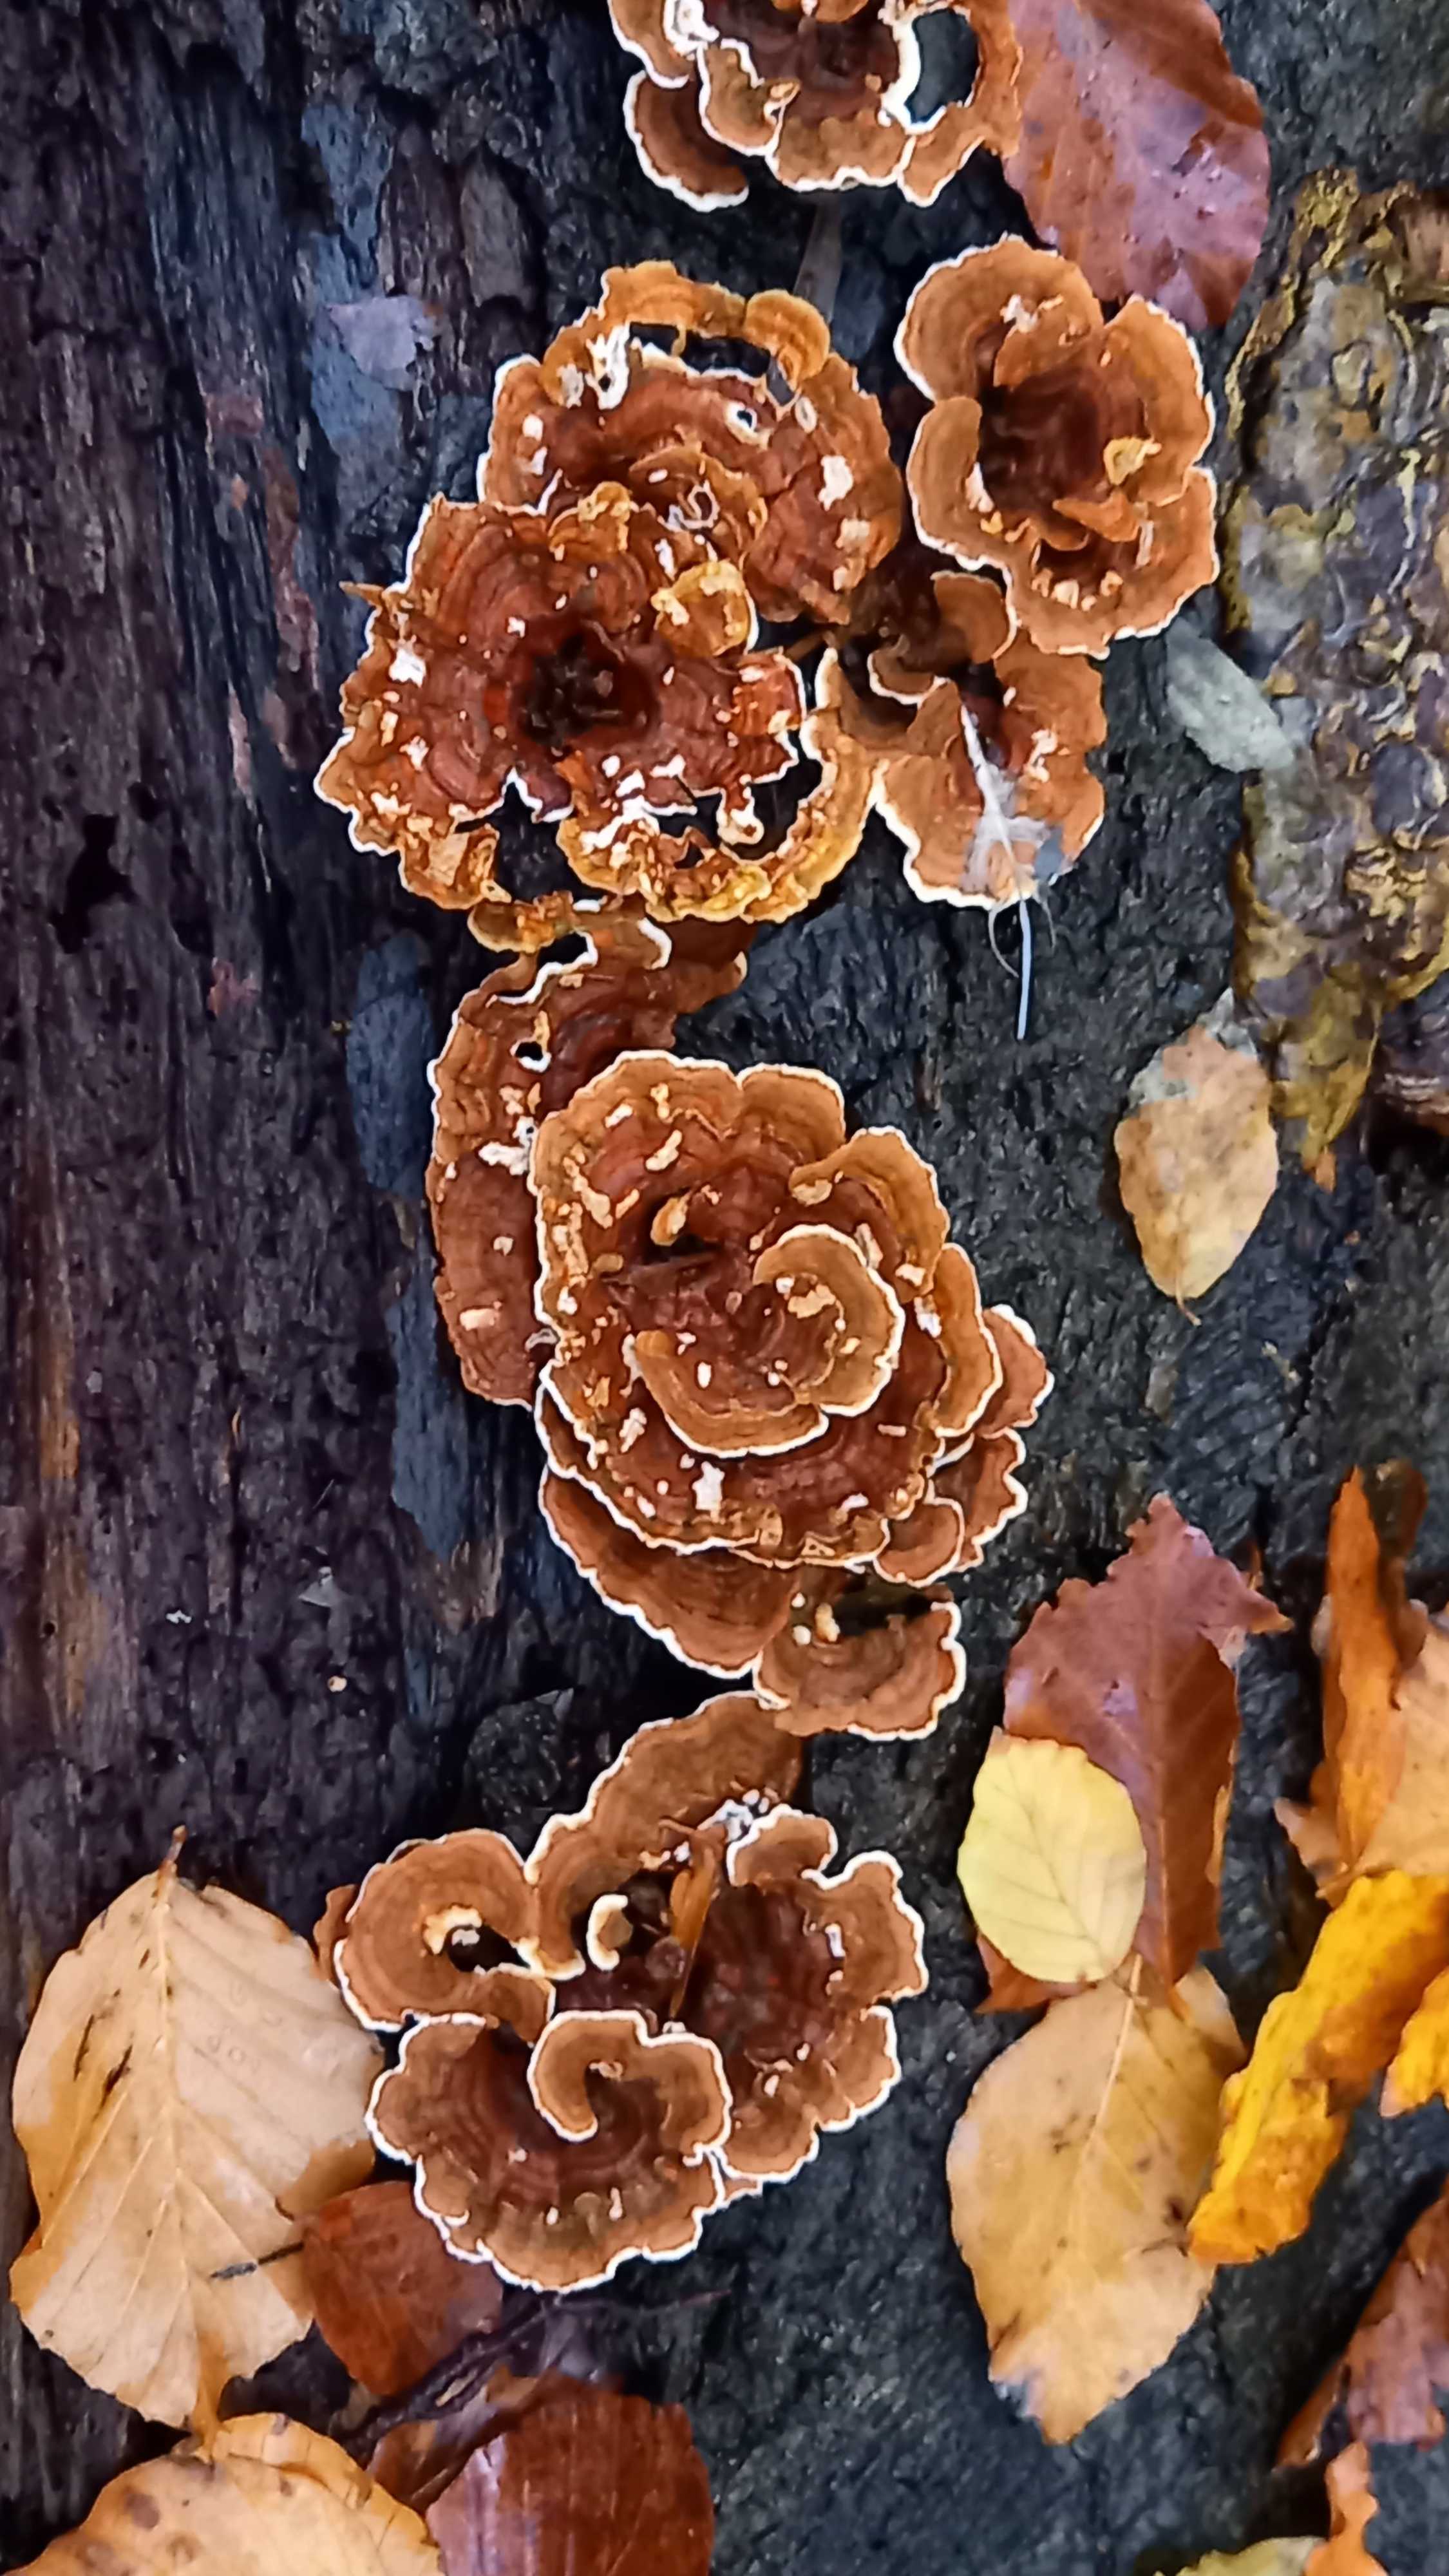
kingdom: Fungi
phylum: Basidiomycota
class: Agaricomycetes
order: Russulales
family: Stereaceae
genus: Stereum
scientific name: Stereum subtomentosum
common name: smuk lædersvamp
